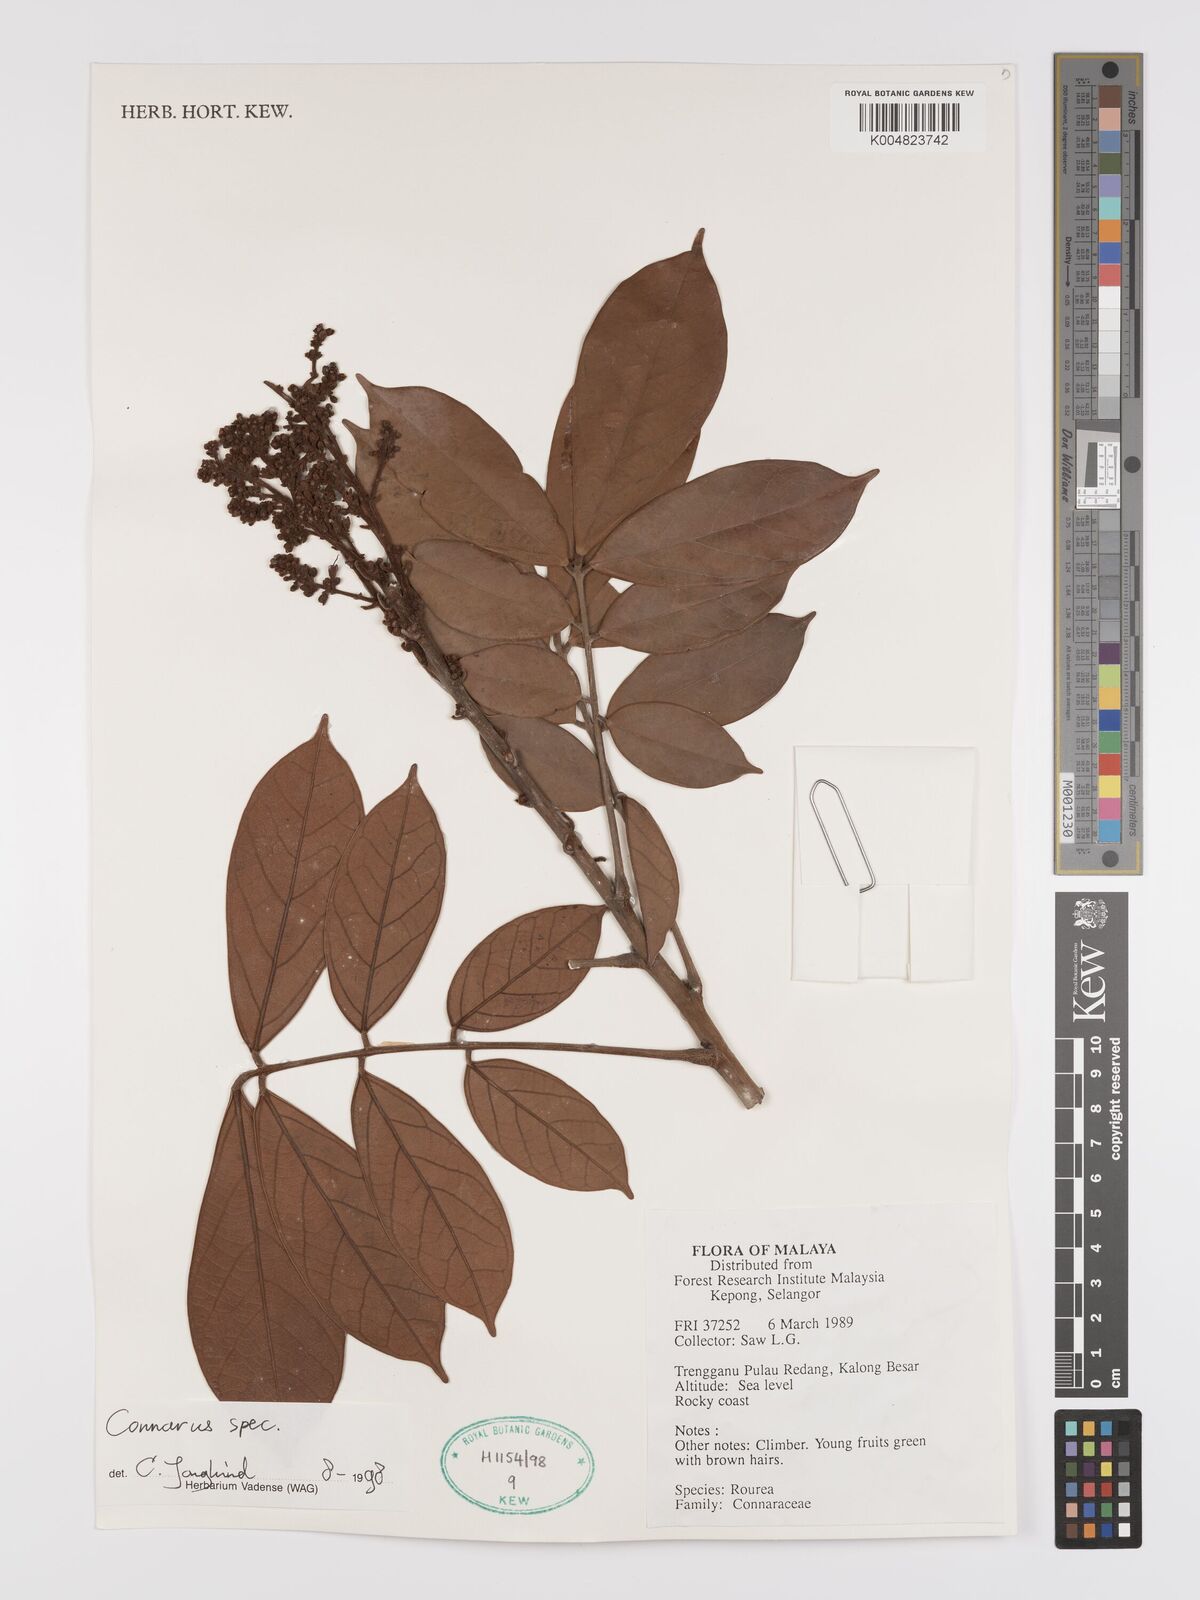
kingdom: Plantae
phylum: Tracheophyta
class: Magnoliopsida
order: Oxalidales
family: Connaraceae
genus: Connarus
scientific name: Connarus
